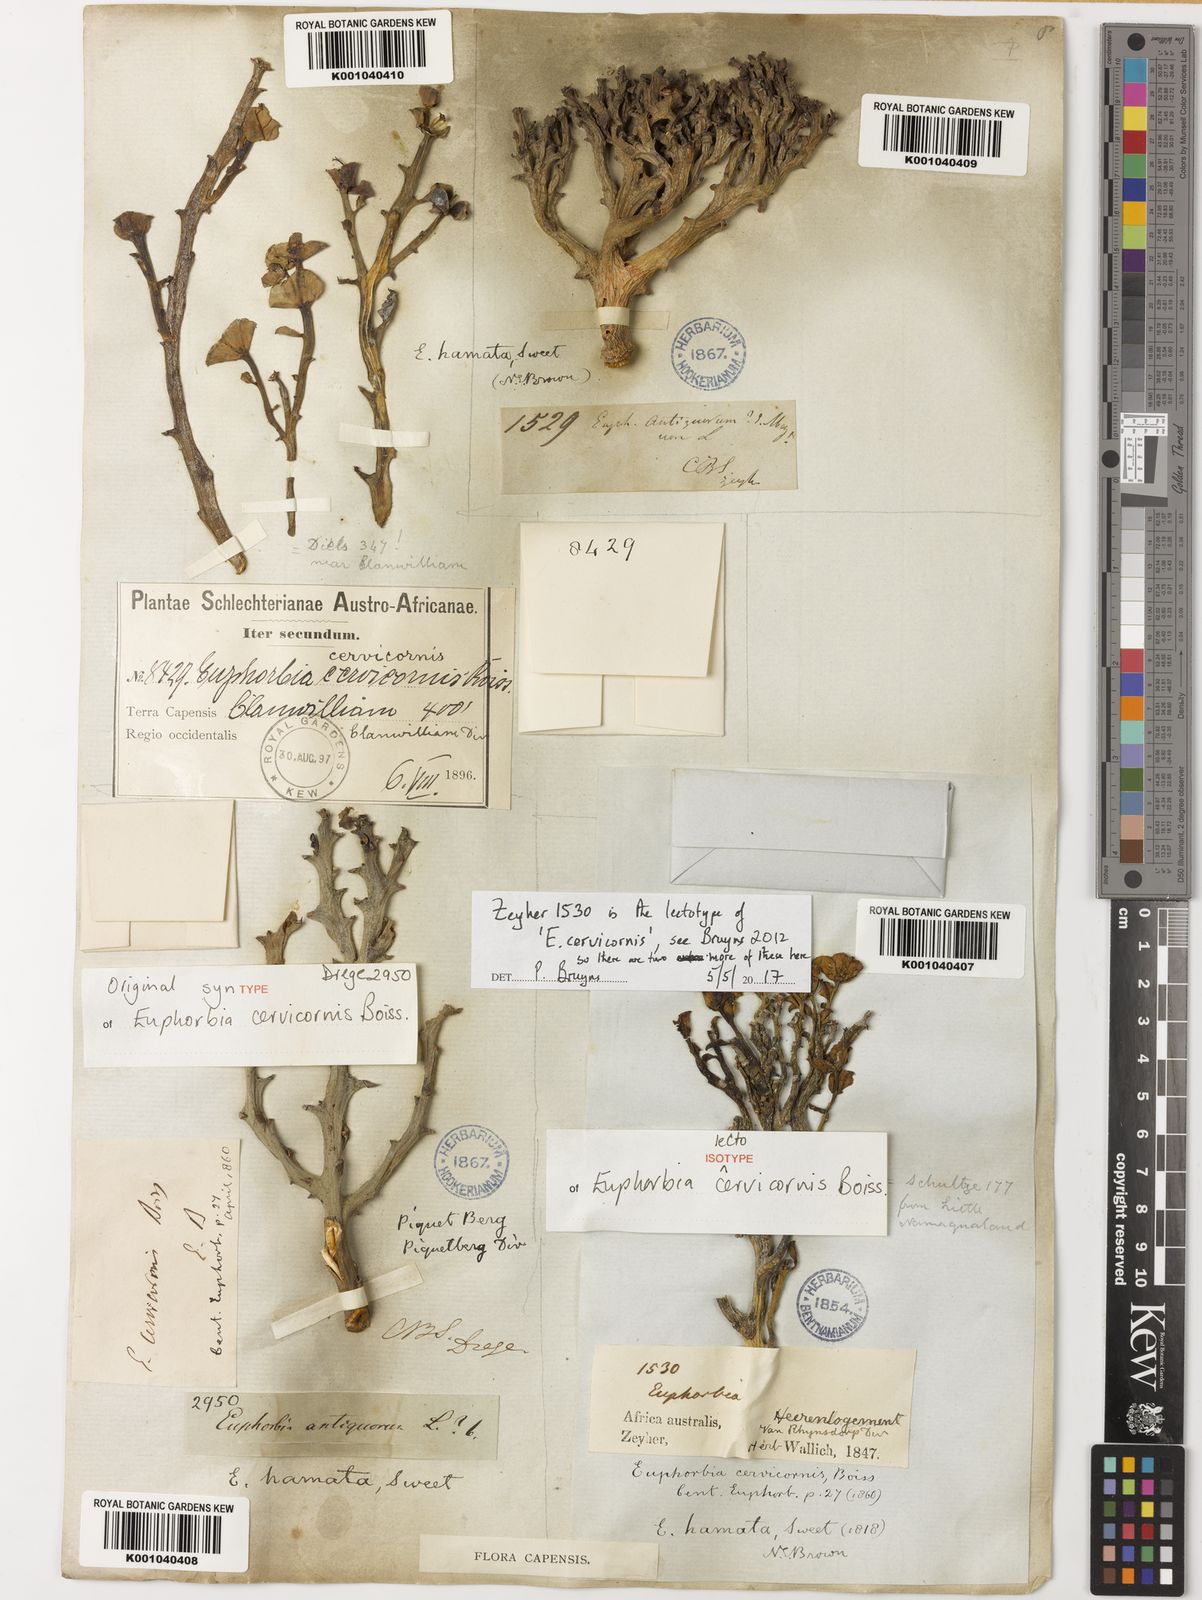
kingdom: Plantae
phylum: Tracheophyta
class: Magnoliopsida
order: Malpighiales
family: Euphorbiaceae
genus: Euphorbia
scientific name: Euphorbia hamata
